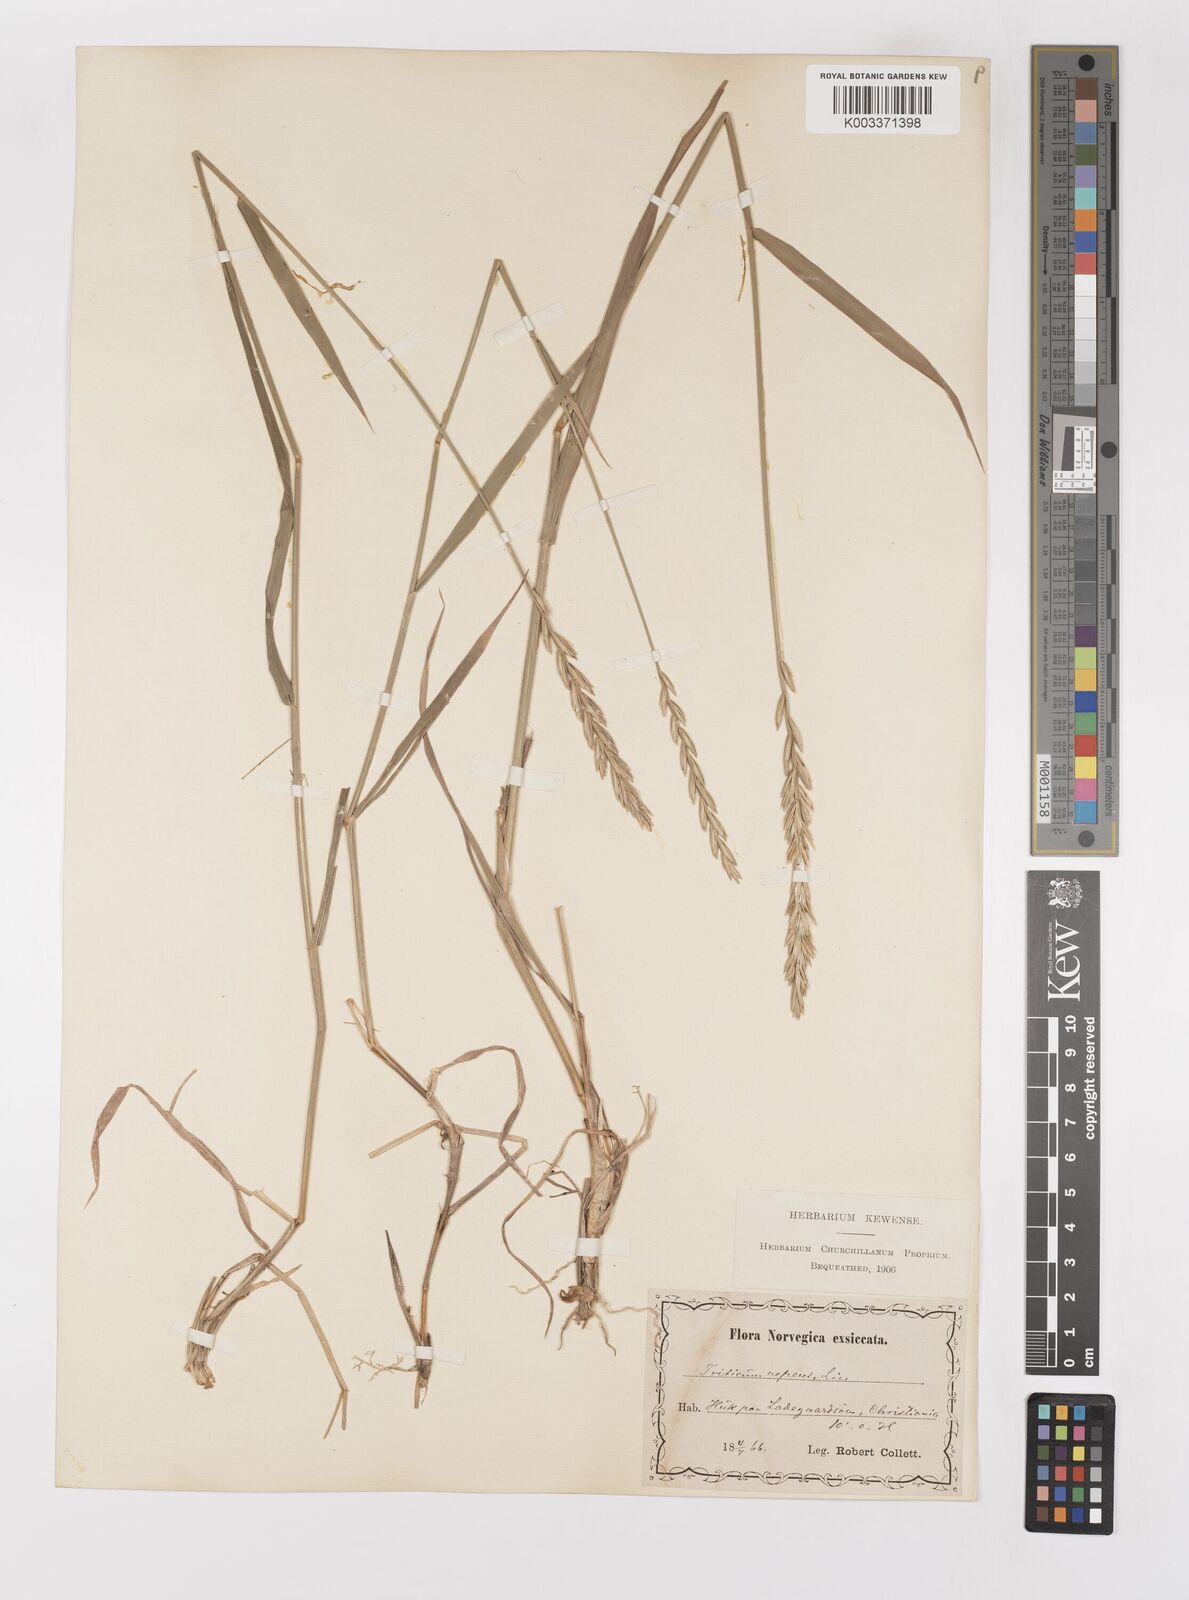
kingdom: Plantae
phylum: Tracheophyta
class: Liliopsida
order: Poales
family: Poaceae
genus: Elymus
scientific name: Elymus repens
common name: Quackgrass
